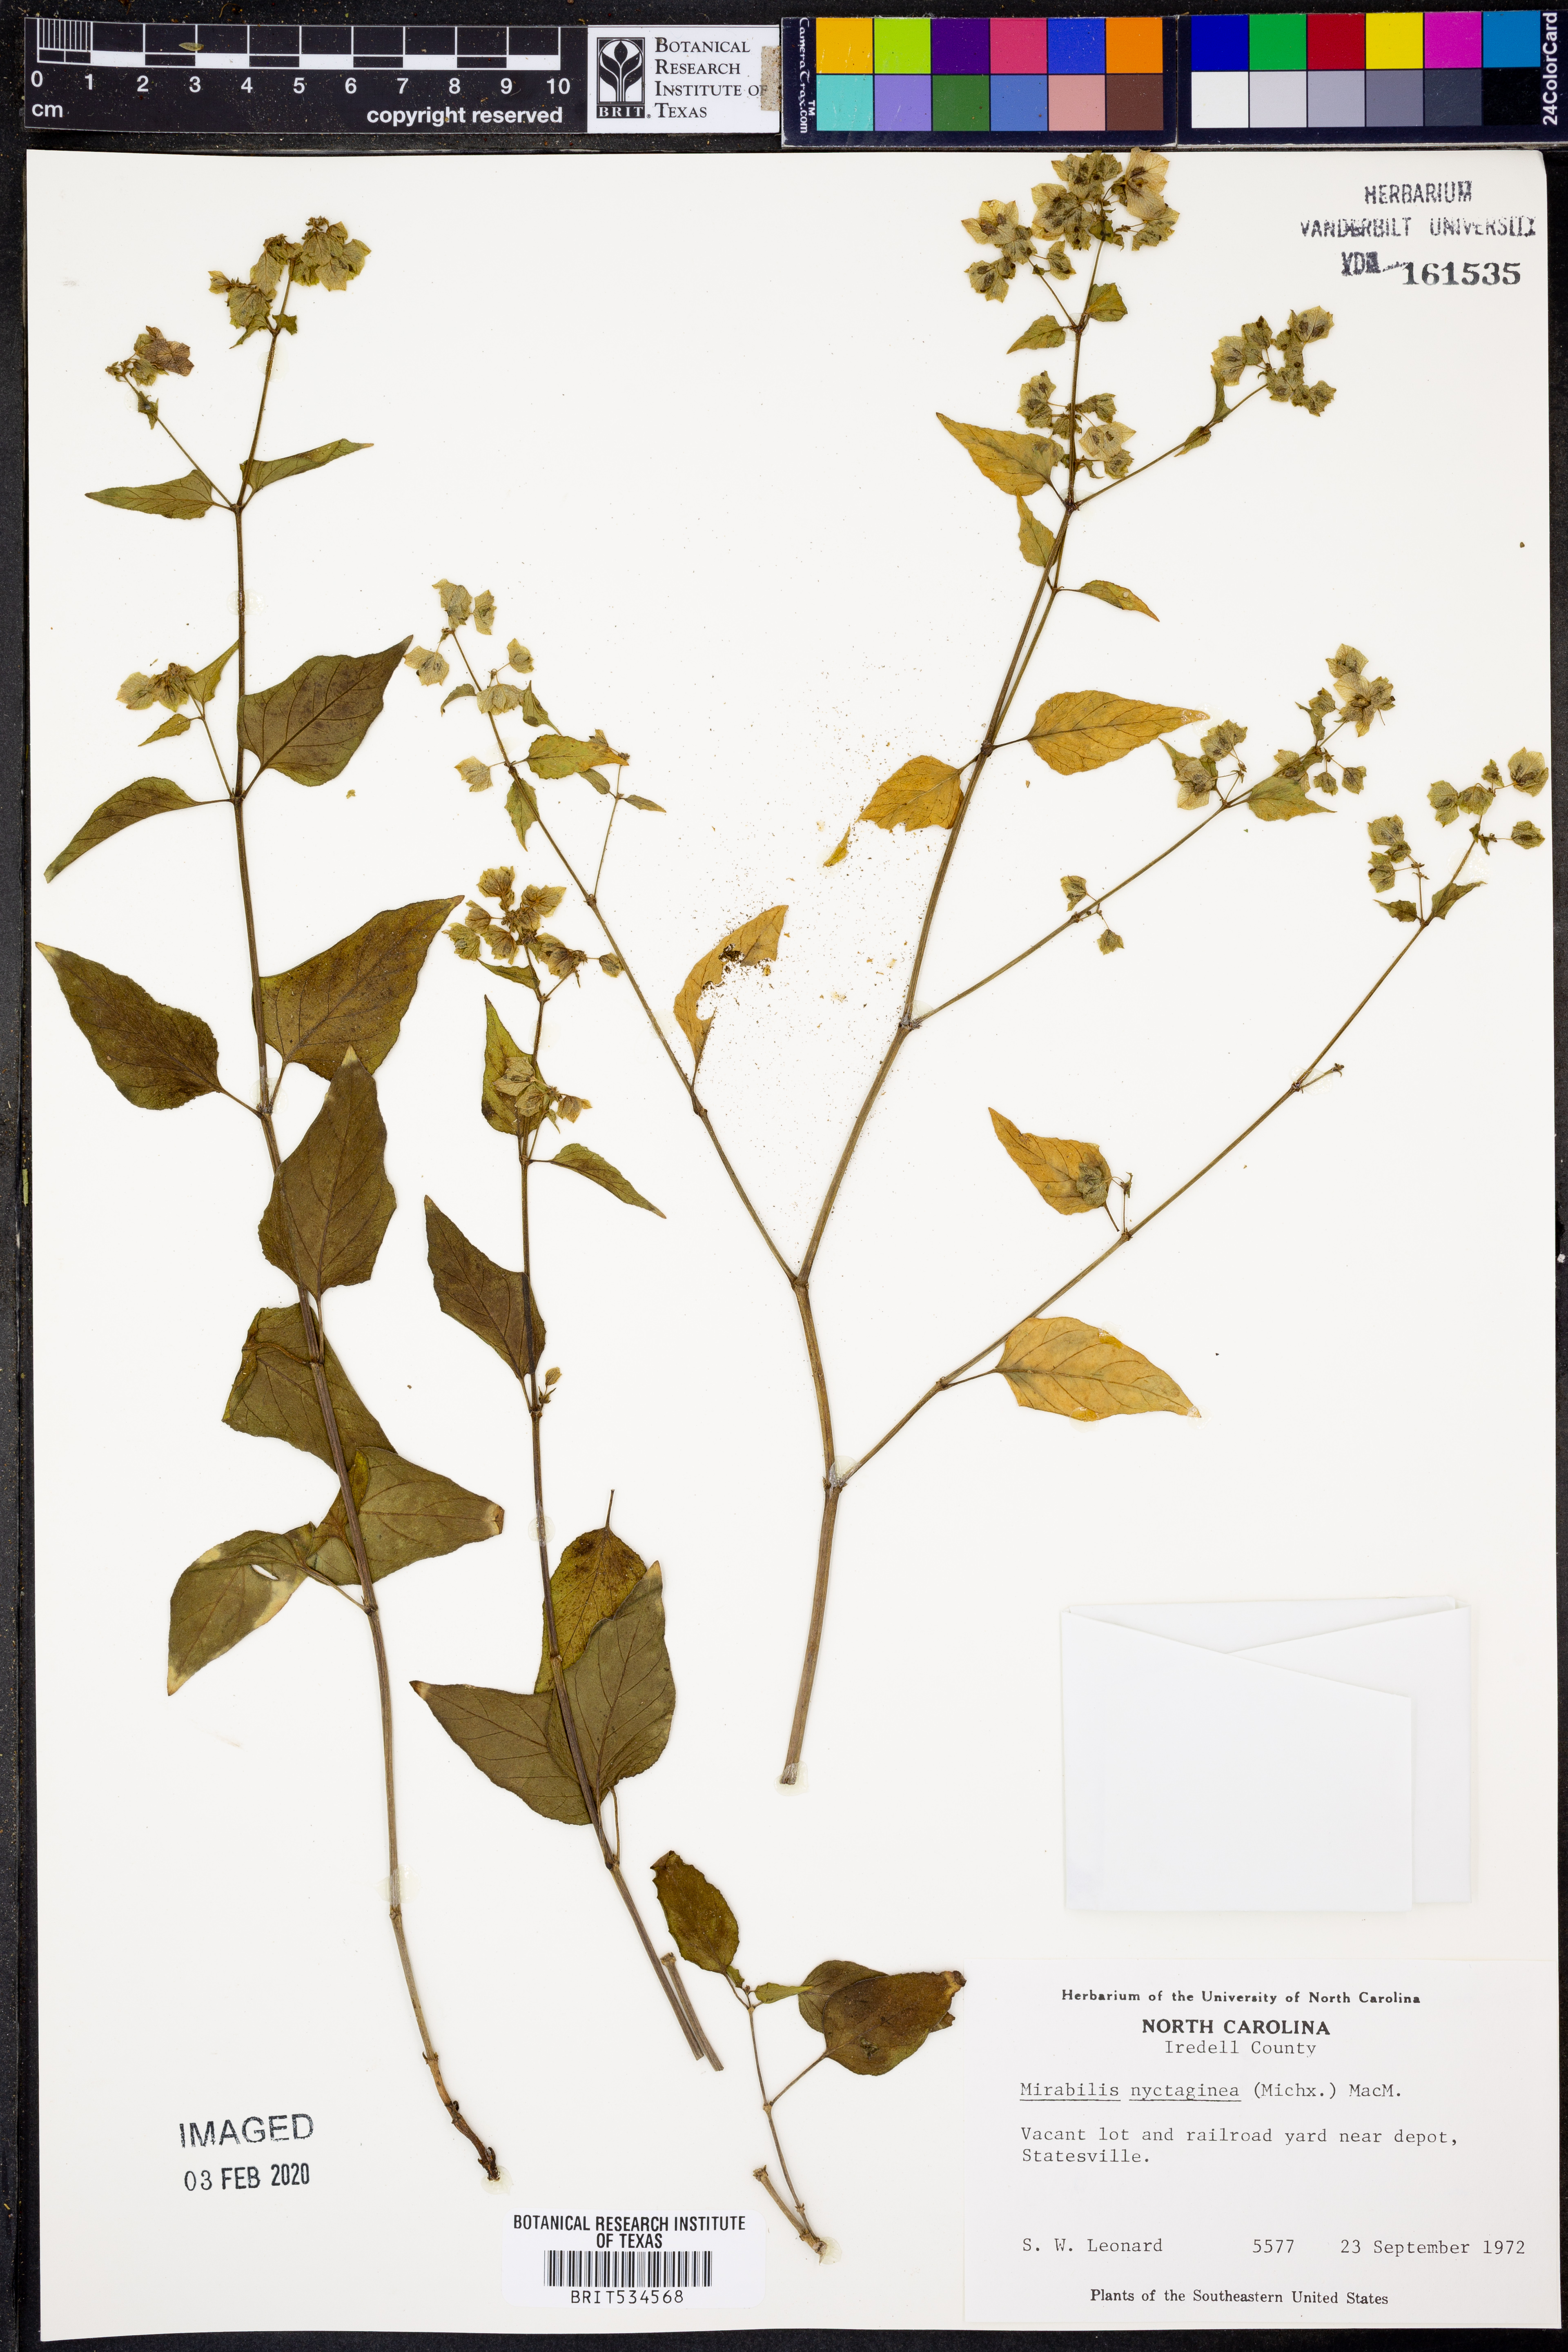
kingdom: Plantae
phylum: Tracheophyta
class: Magnoliopsida
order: Caryophyllales
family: Nyctaginaceae
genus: Mirabilis
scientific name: Mirabilis nyctaginea
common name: Umbrella wort
